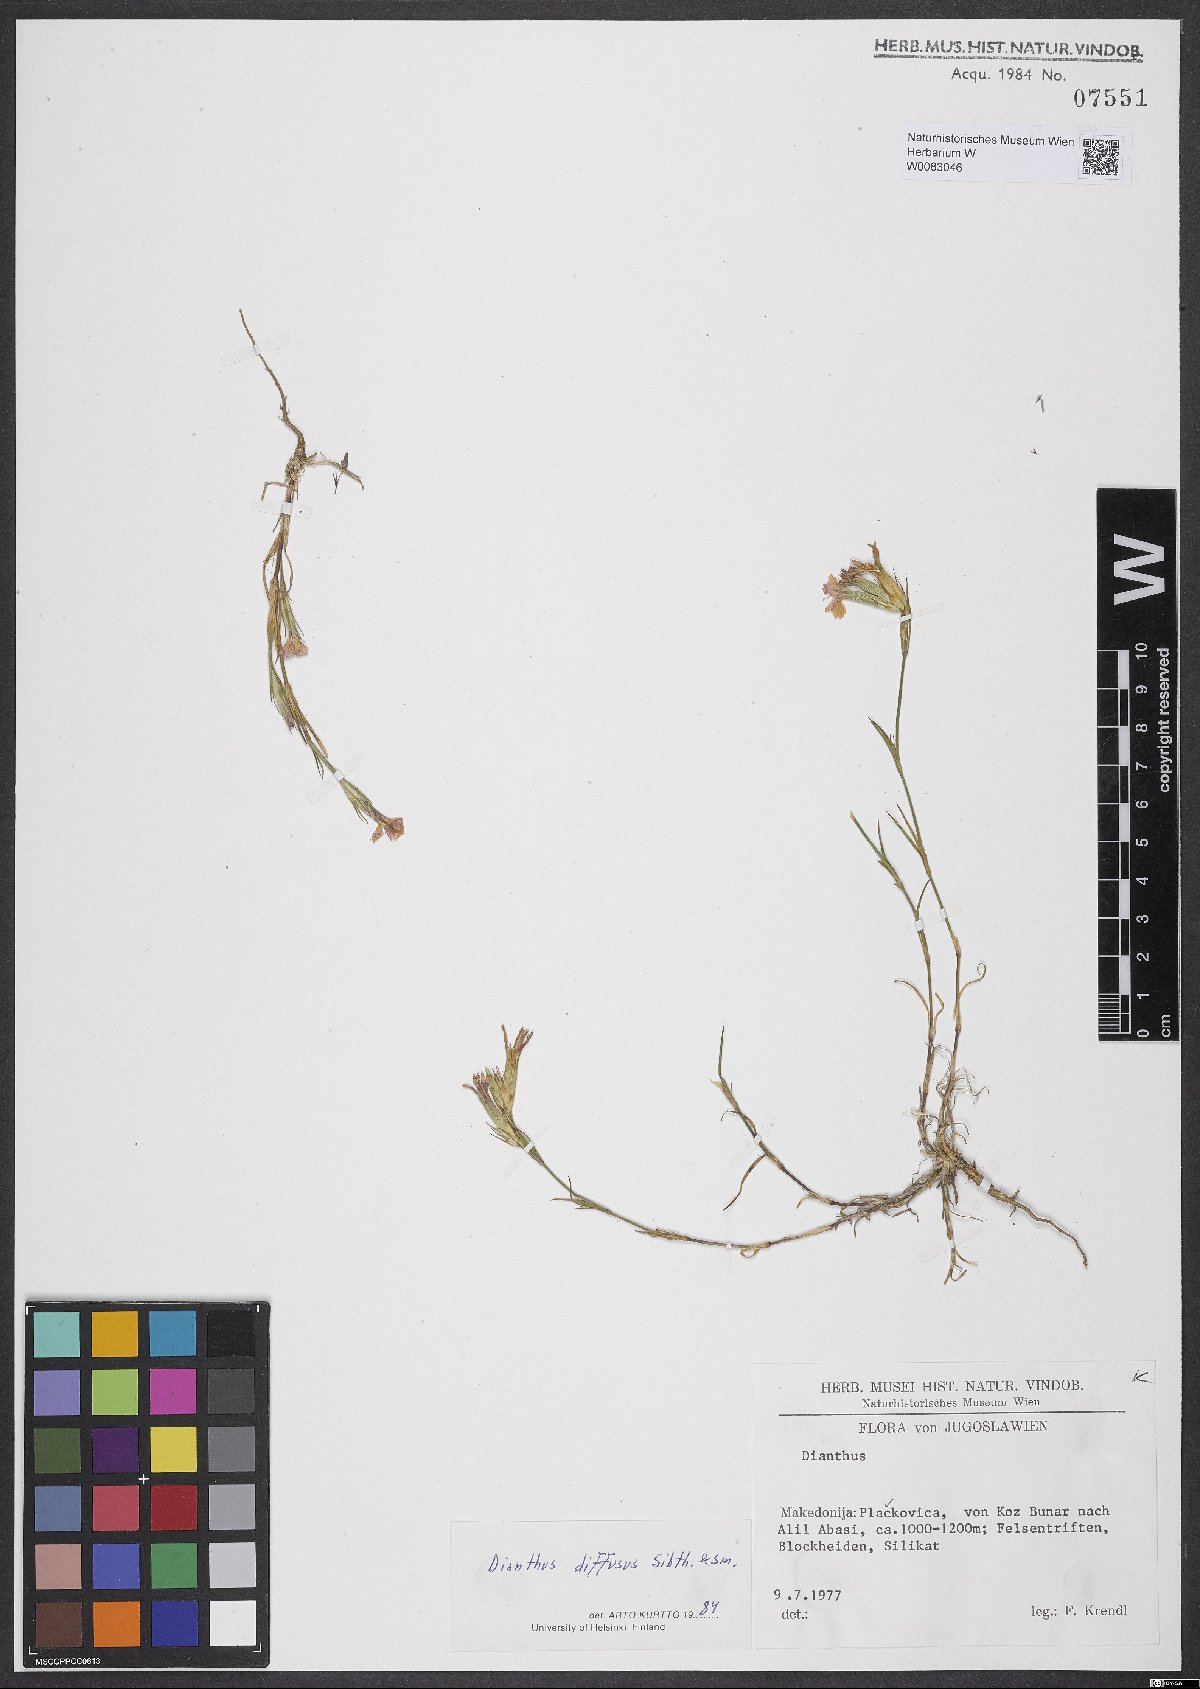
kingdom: Plantae
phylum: Tracheophyta
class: Magnoliopsida
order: Caryophyllales
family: Caryophyllaceae
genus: Dianthus
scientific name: Dianthus diffusus
